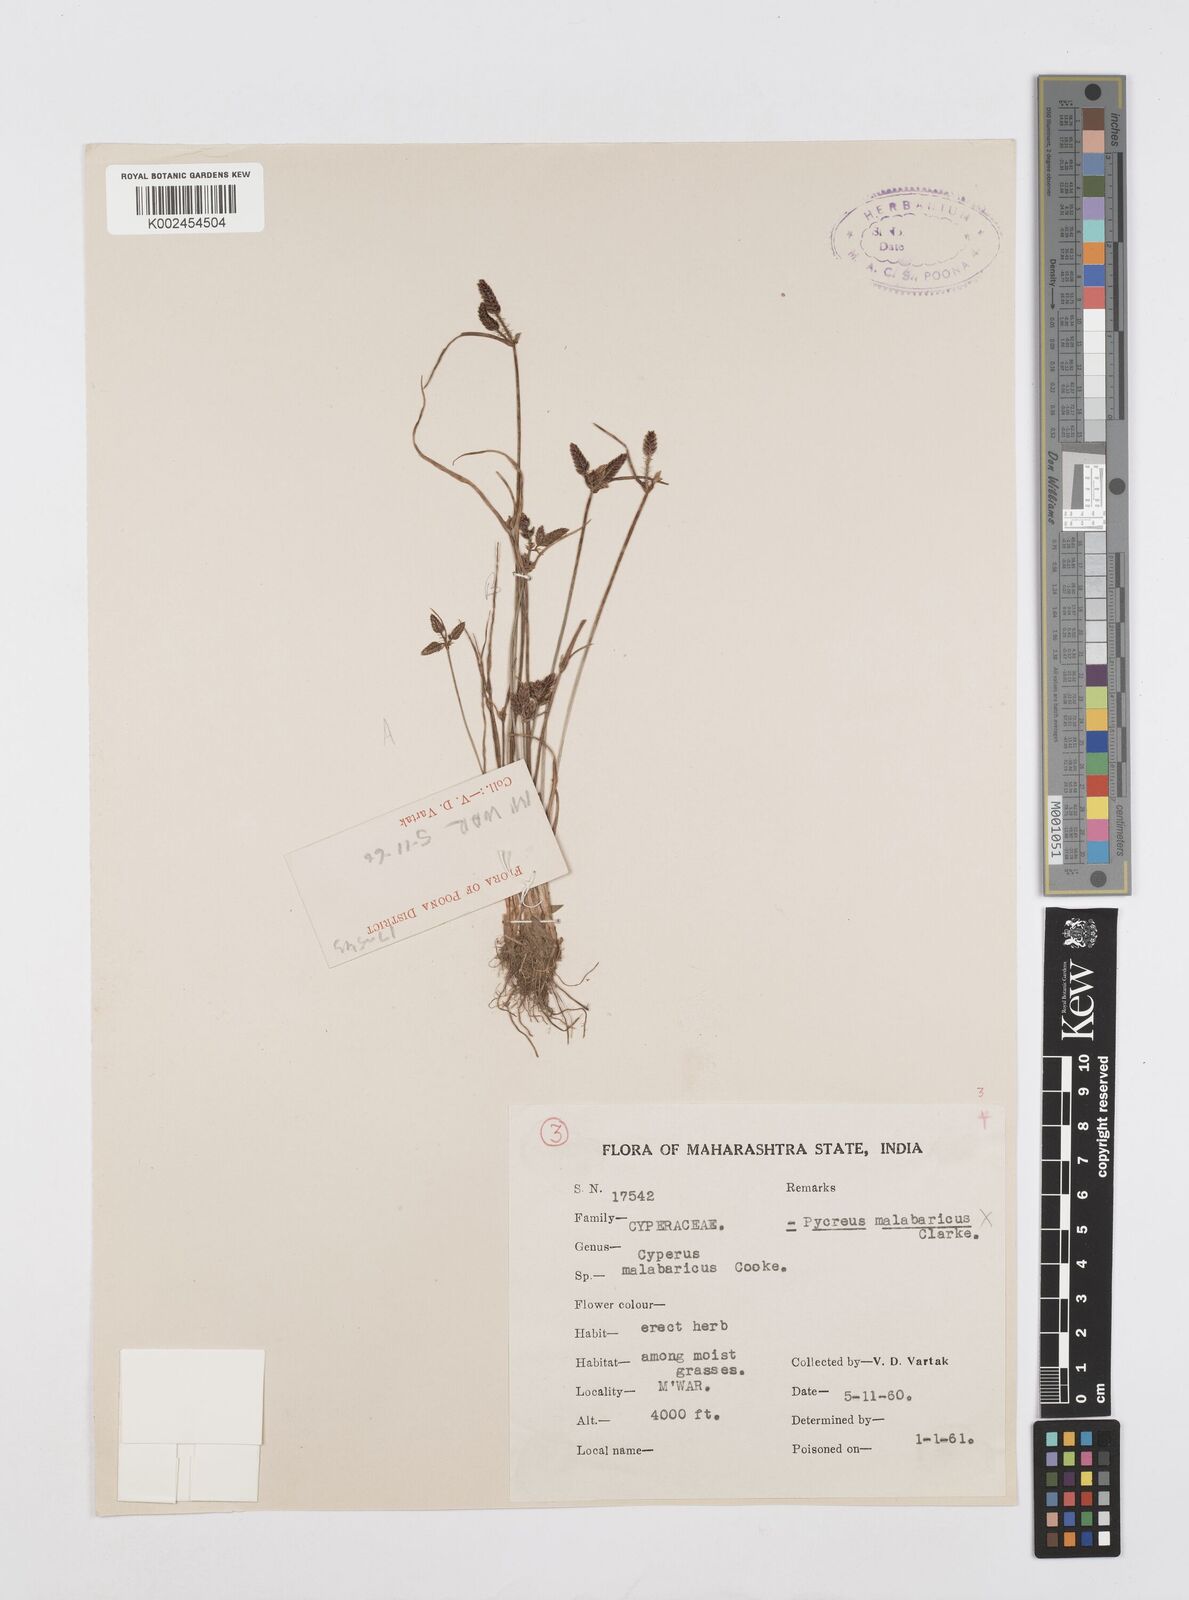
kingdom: Plantae
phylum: Tracheophyta
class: Liliopsida
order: Poales
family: Cyperaceae
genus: Cyperus
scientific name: Cyperus
